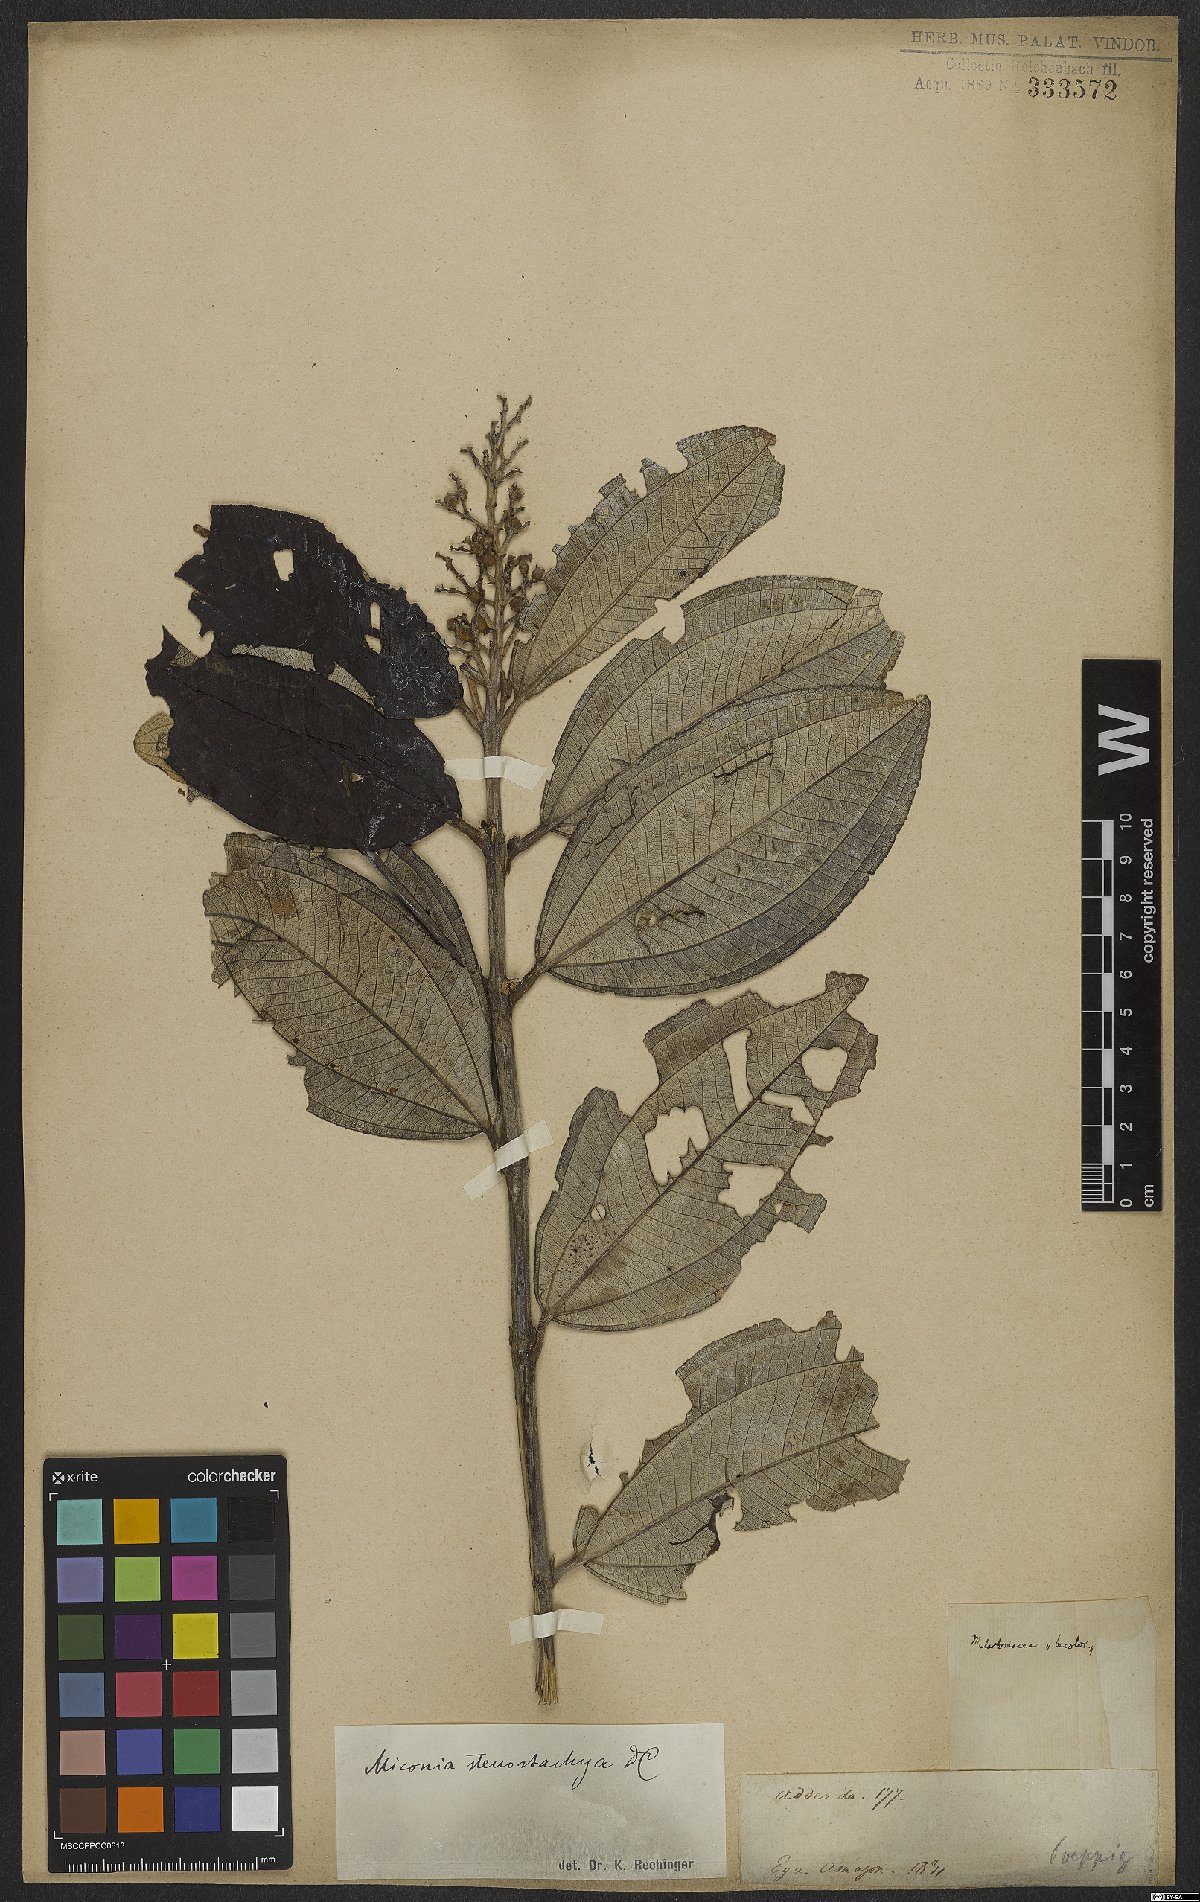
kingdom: Plantae
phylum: Tracheophyta
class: Magnoliopsida
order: Myrtales
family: Melastomataceae
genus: Miconia
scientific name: Miconia stenostachya
